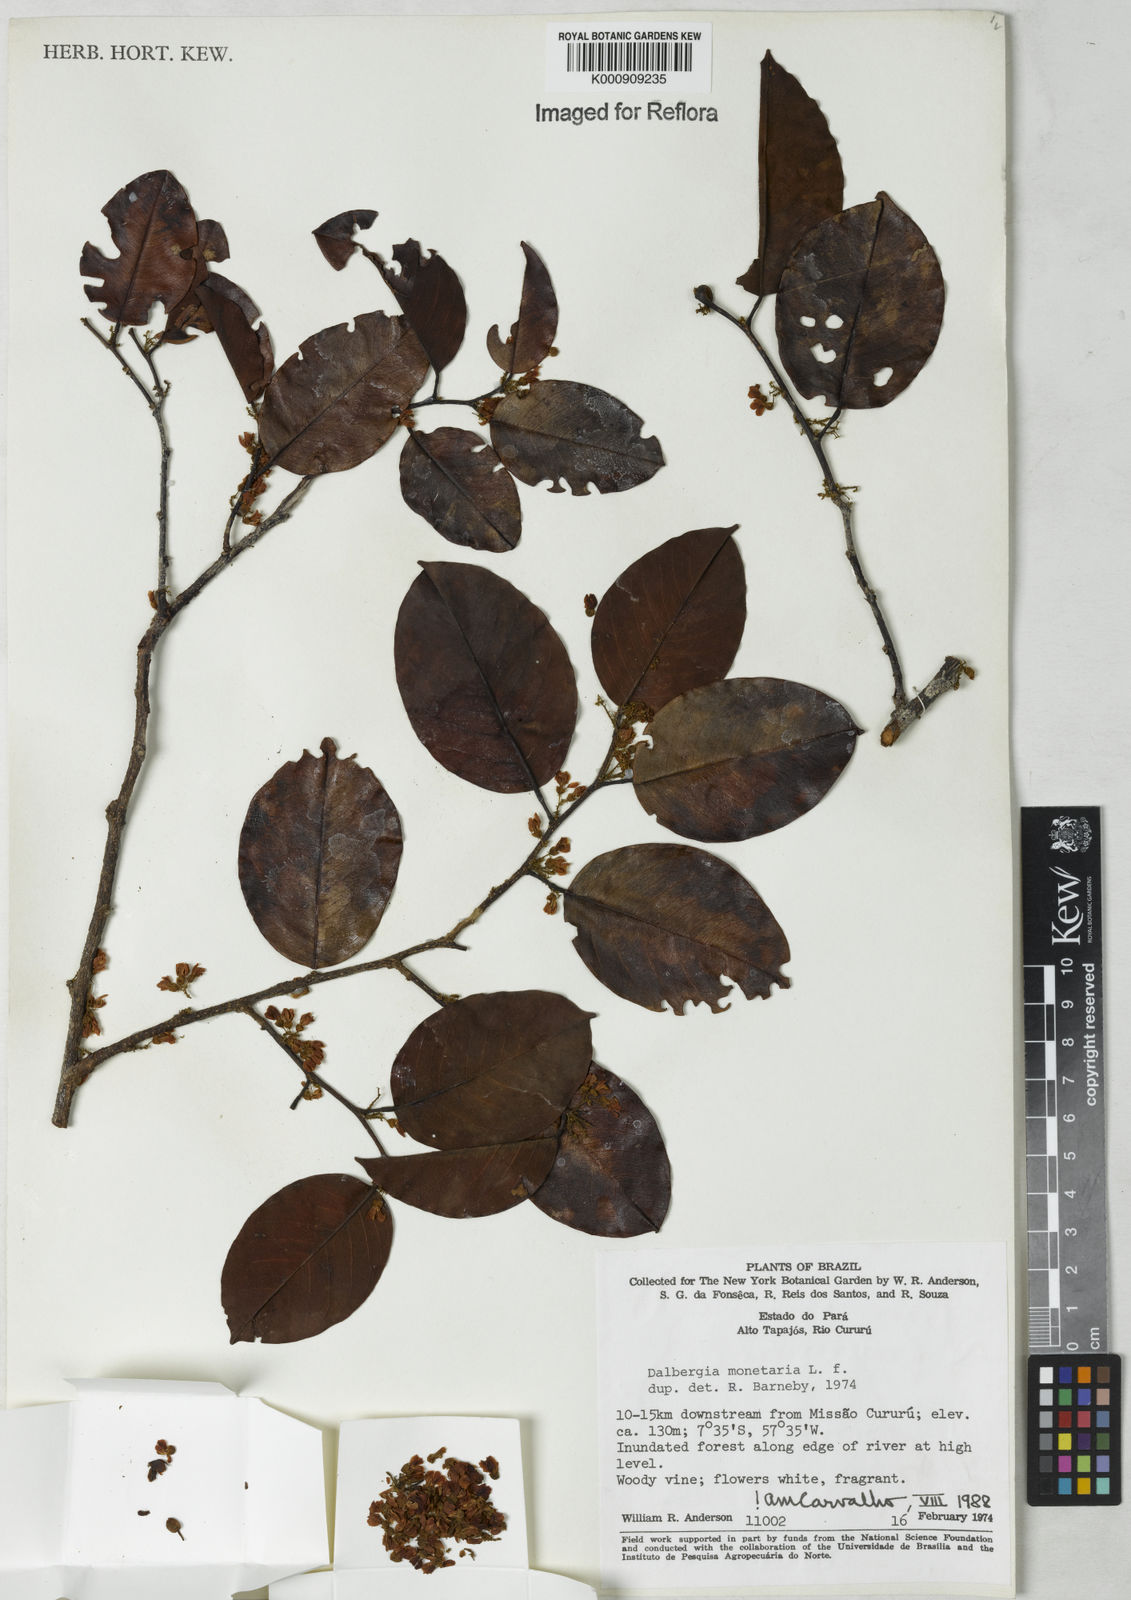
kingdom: Plantae
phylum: Tracheophyta
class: Magnoliopsida
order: Fabales
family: Fabaceae
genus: Dalbergia
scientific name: Dalbergia ovalis
